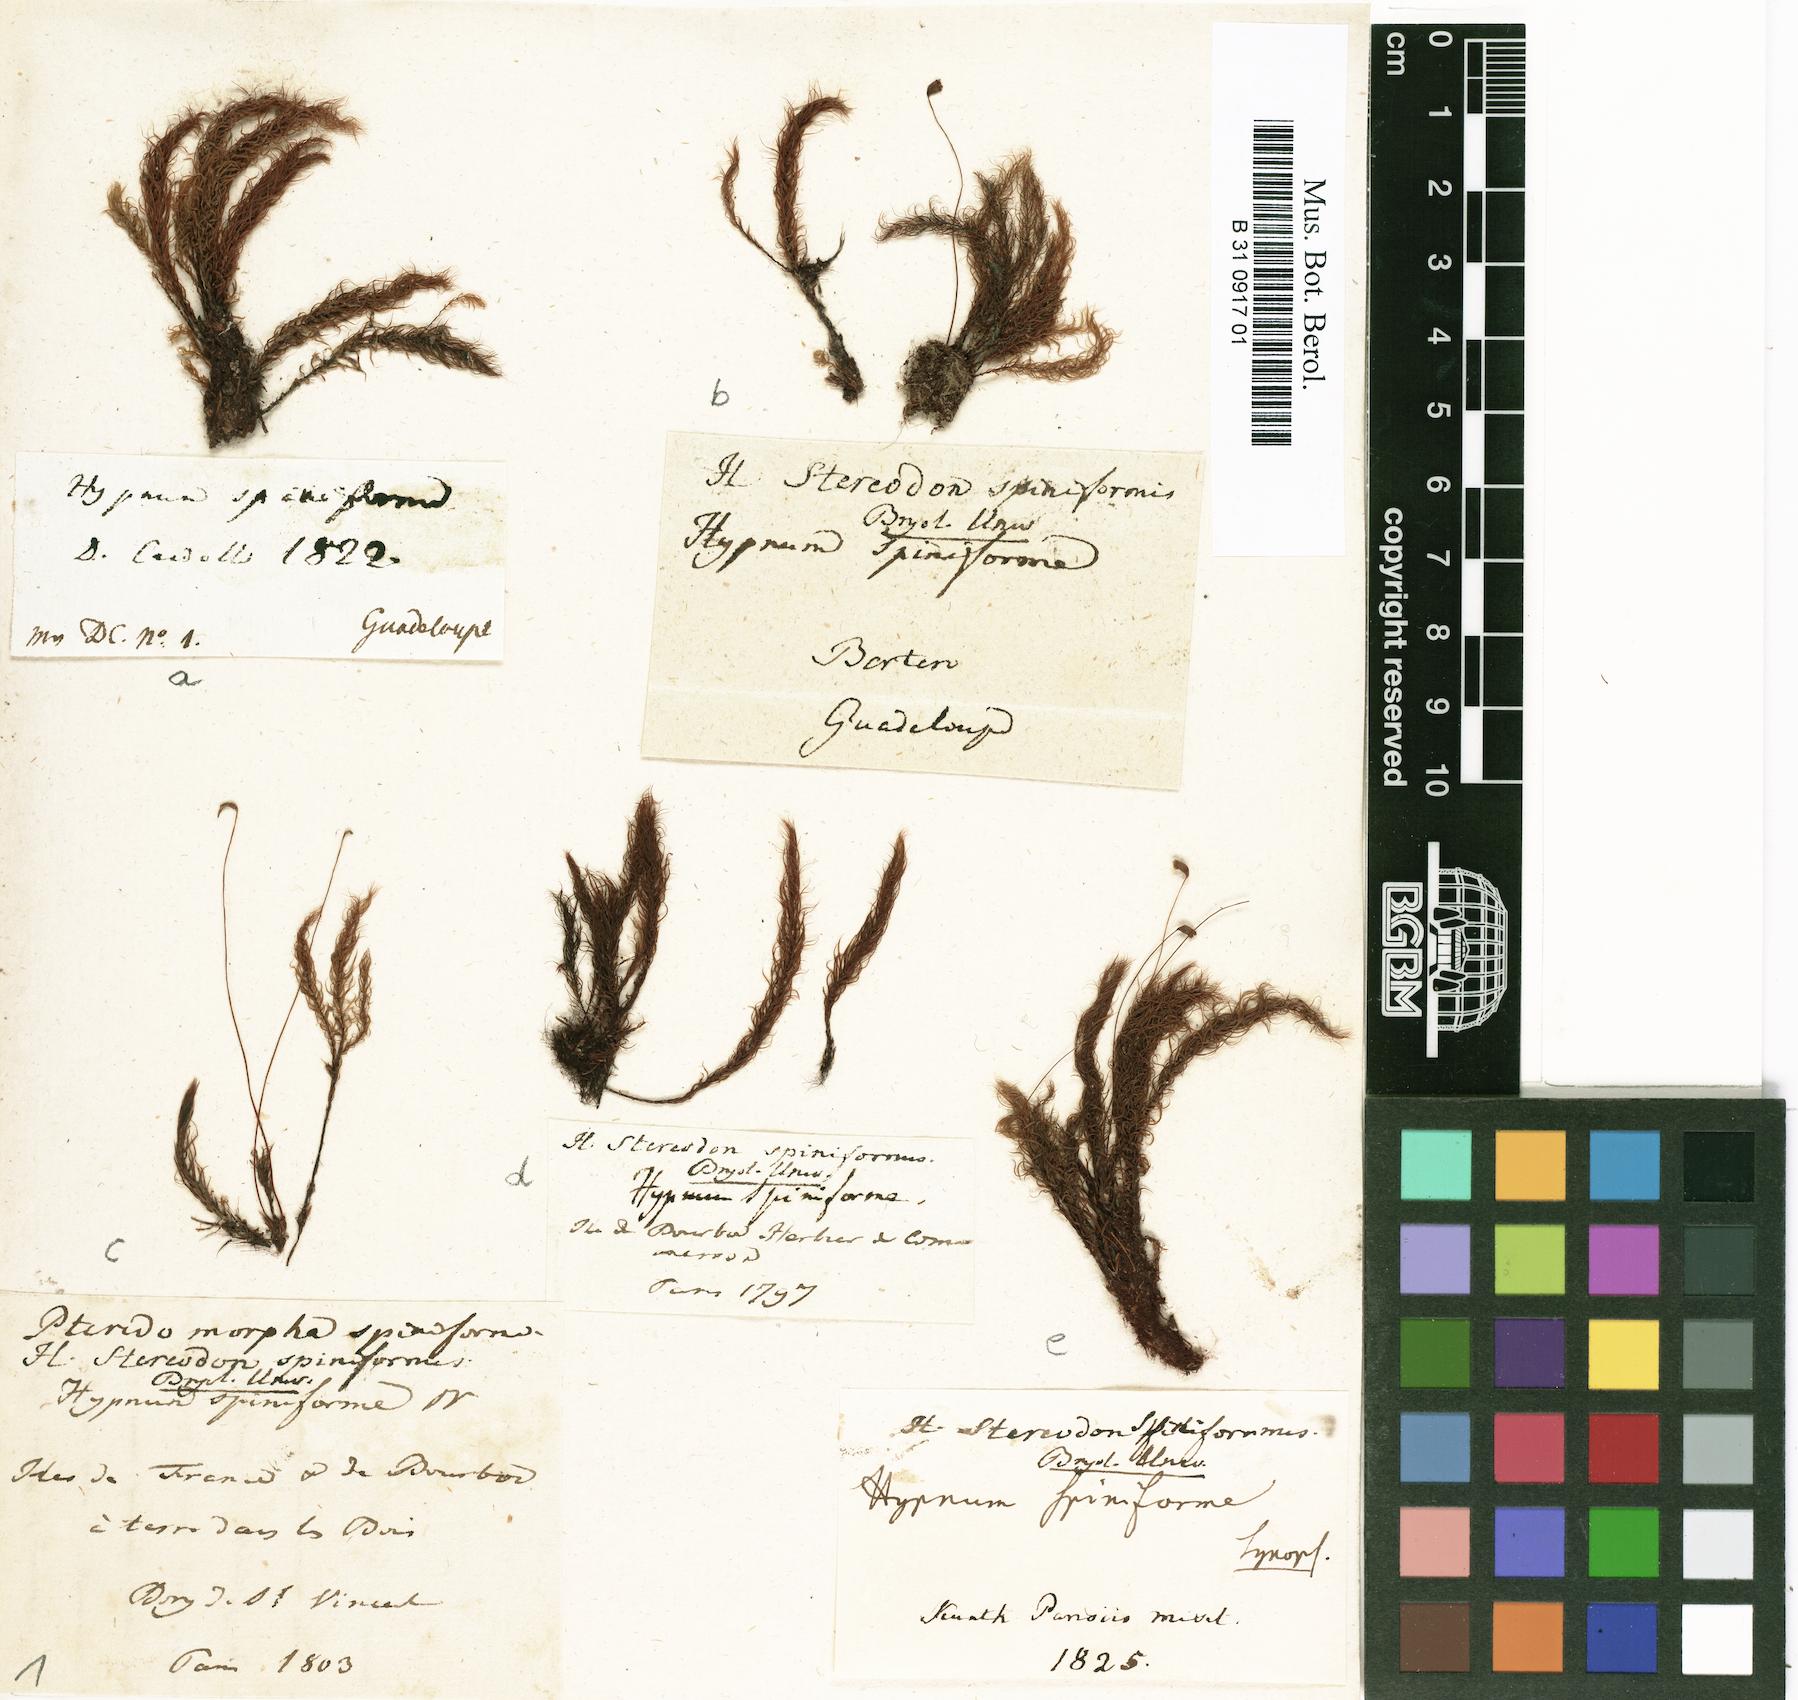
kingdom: Plantae
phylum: Bryophyta
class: Bryopsida
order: Rhizogoniales
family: Calomniaceae
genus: Pyrrhobryum
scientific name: Pyrrhobryum spiniforme
